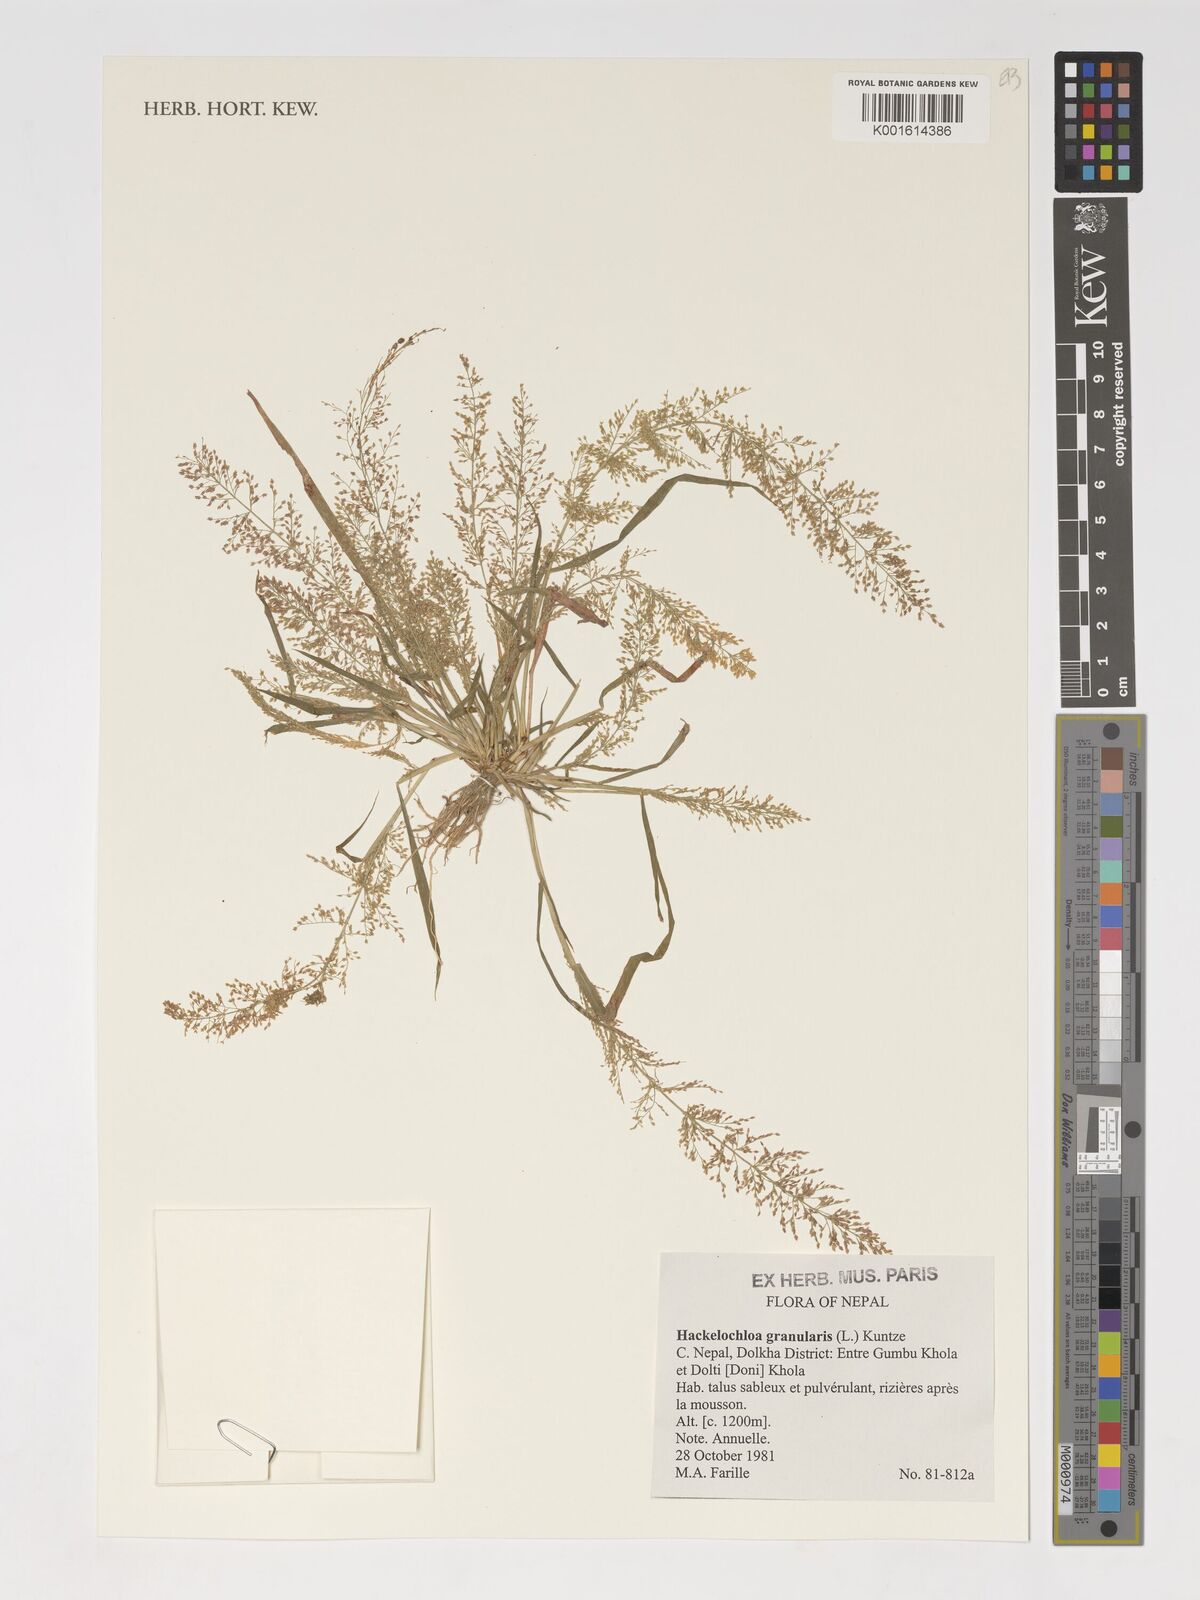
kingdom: Plantae
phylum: Tracheophyta
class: Liliopsida
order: Poales
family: Poaceae
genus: Hackelochloa
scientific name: Hackelochloa granularis
